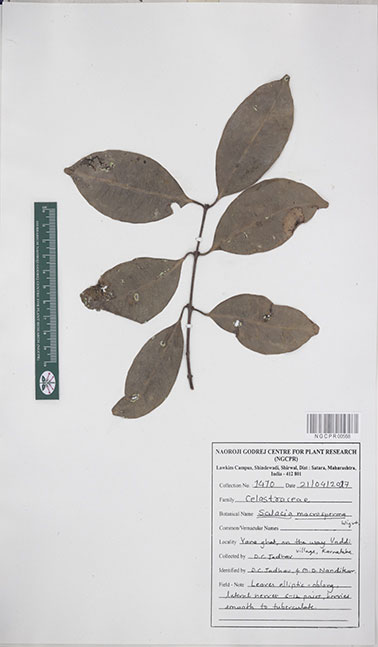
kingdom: Plantae
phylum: Tracheophyta
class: Magnoliopsida
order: Celastrales
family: Celastraceae
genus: Salacia
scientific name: Salacia macrosperma
